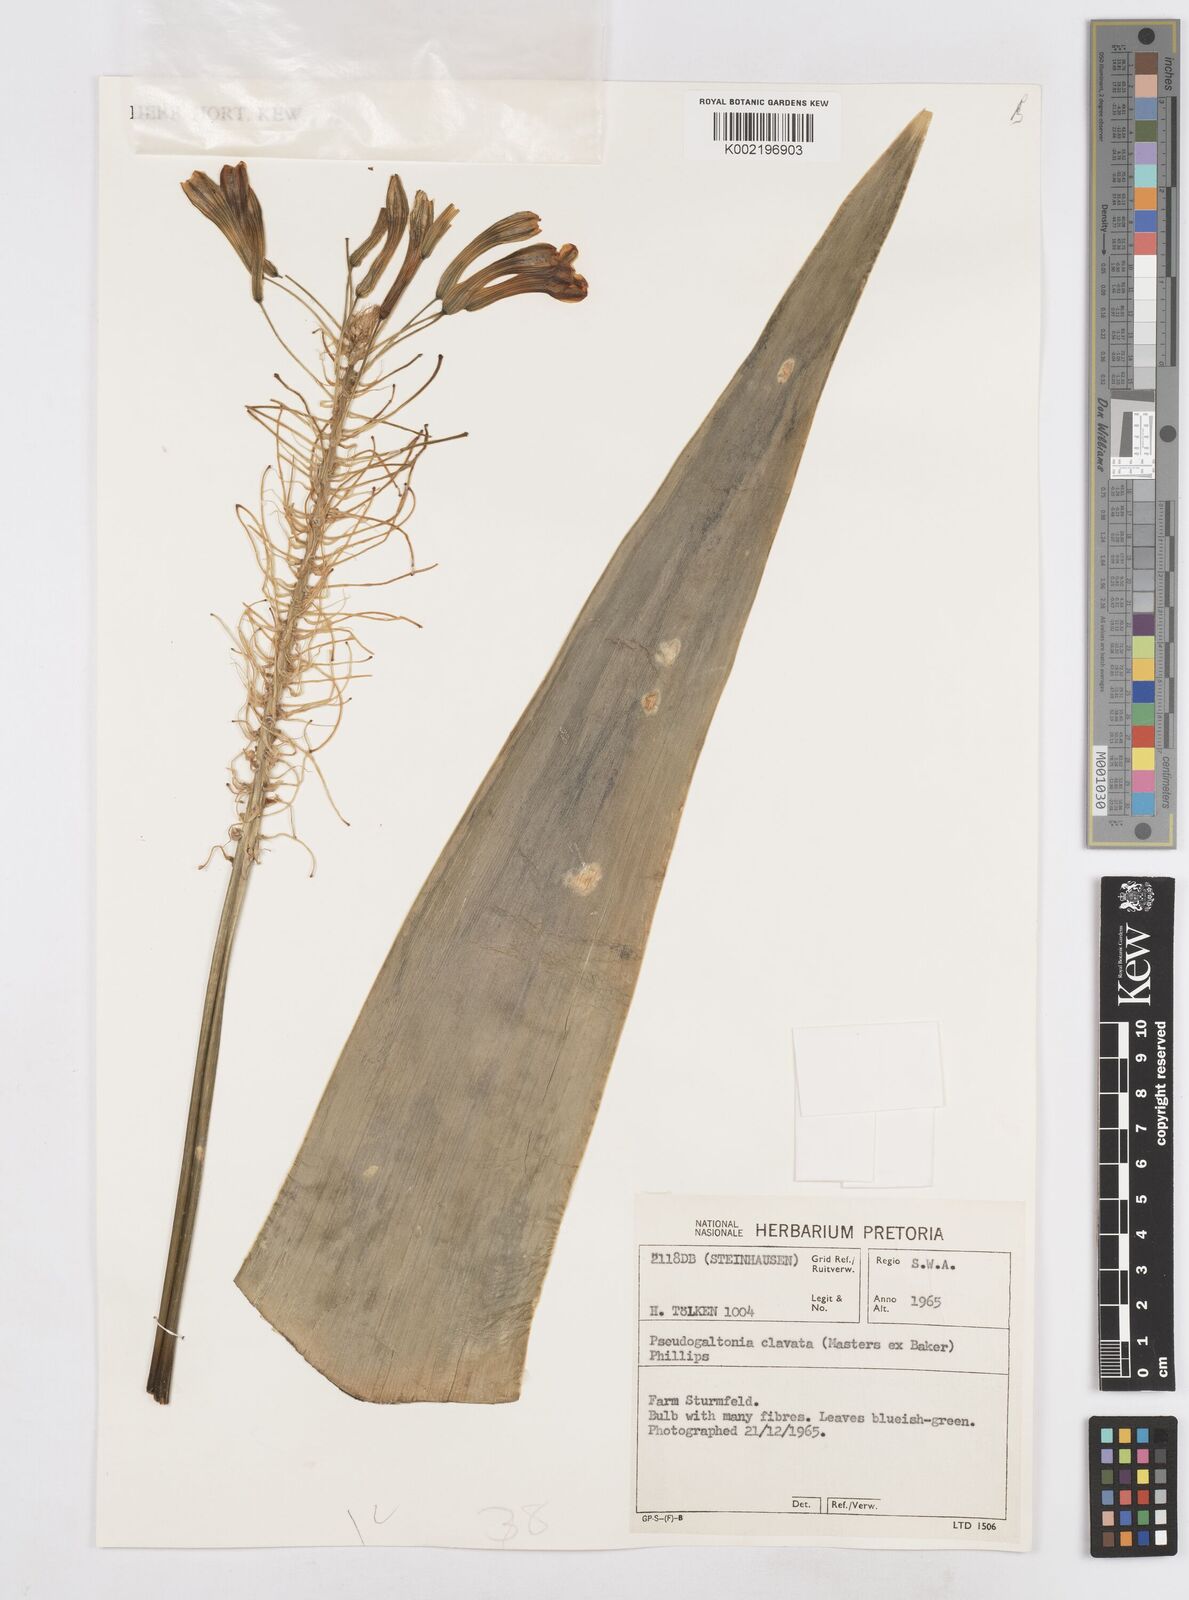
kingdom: Plantae
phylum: Tracheophyta
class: Liliopsida
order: Asparagales
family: Asparagaceae
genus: Pseudogaltonia
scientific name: Pseudogaltonia clavata
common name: South west african slangkop
